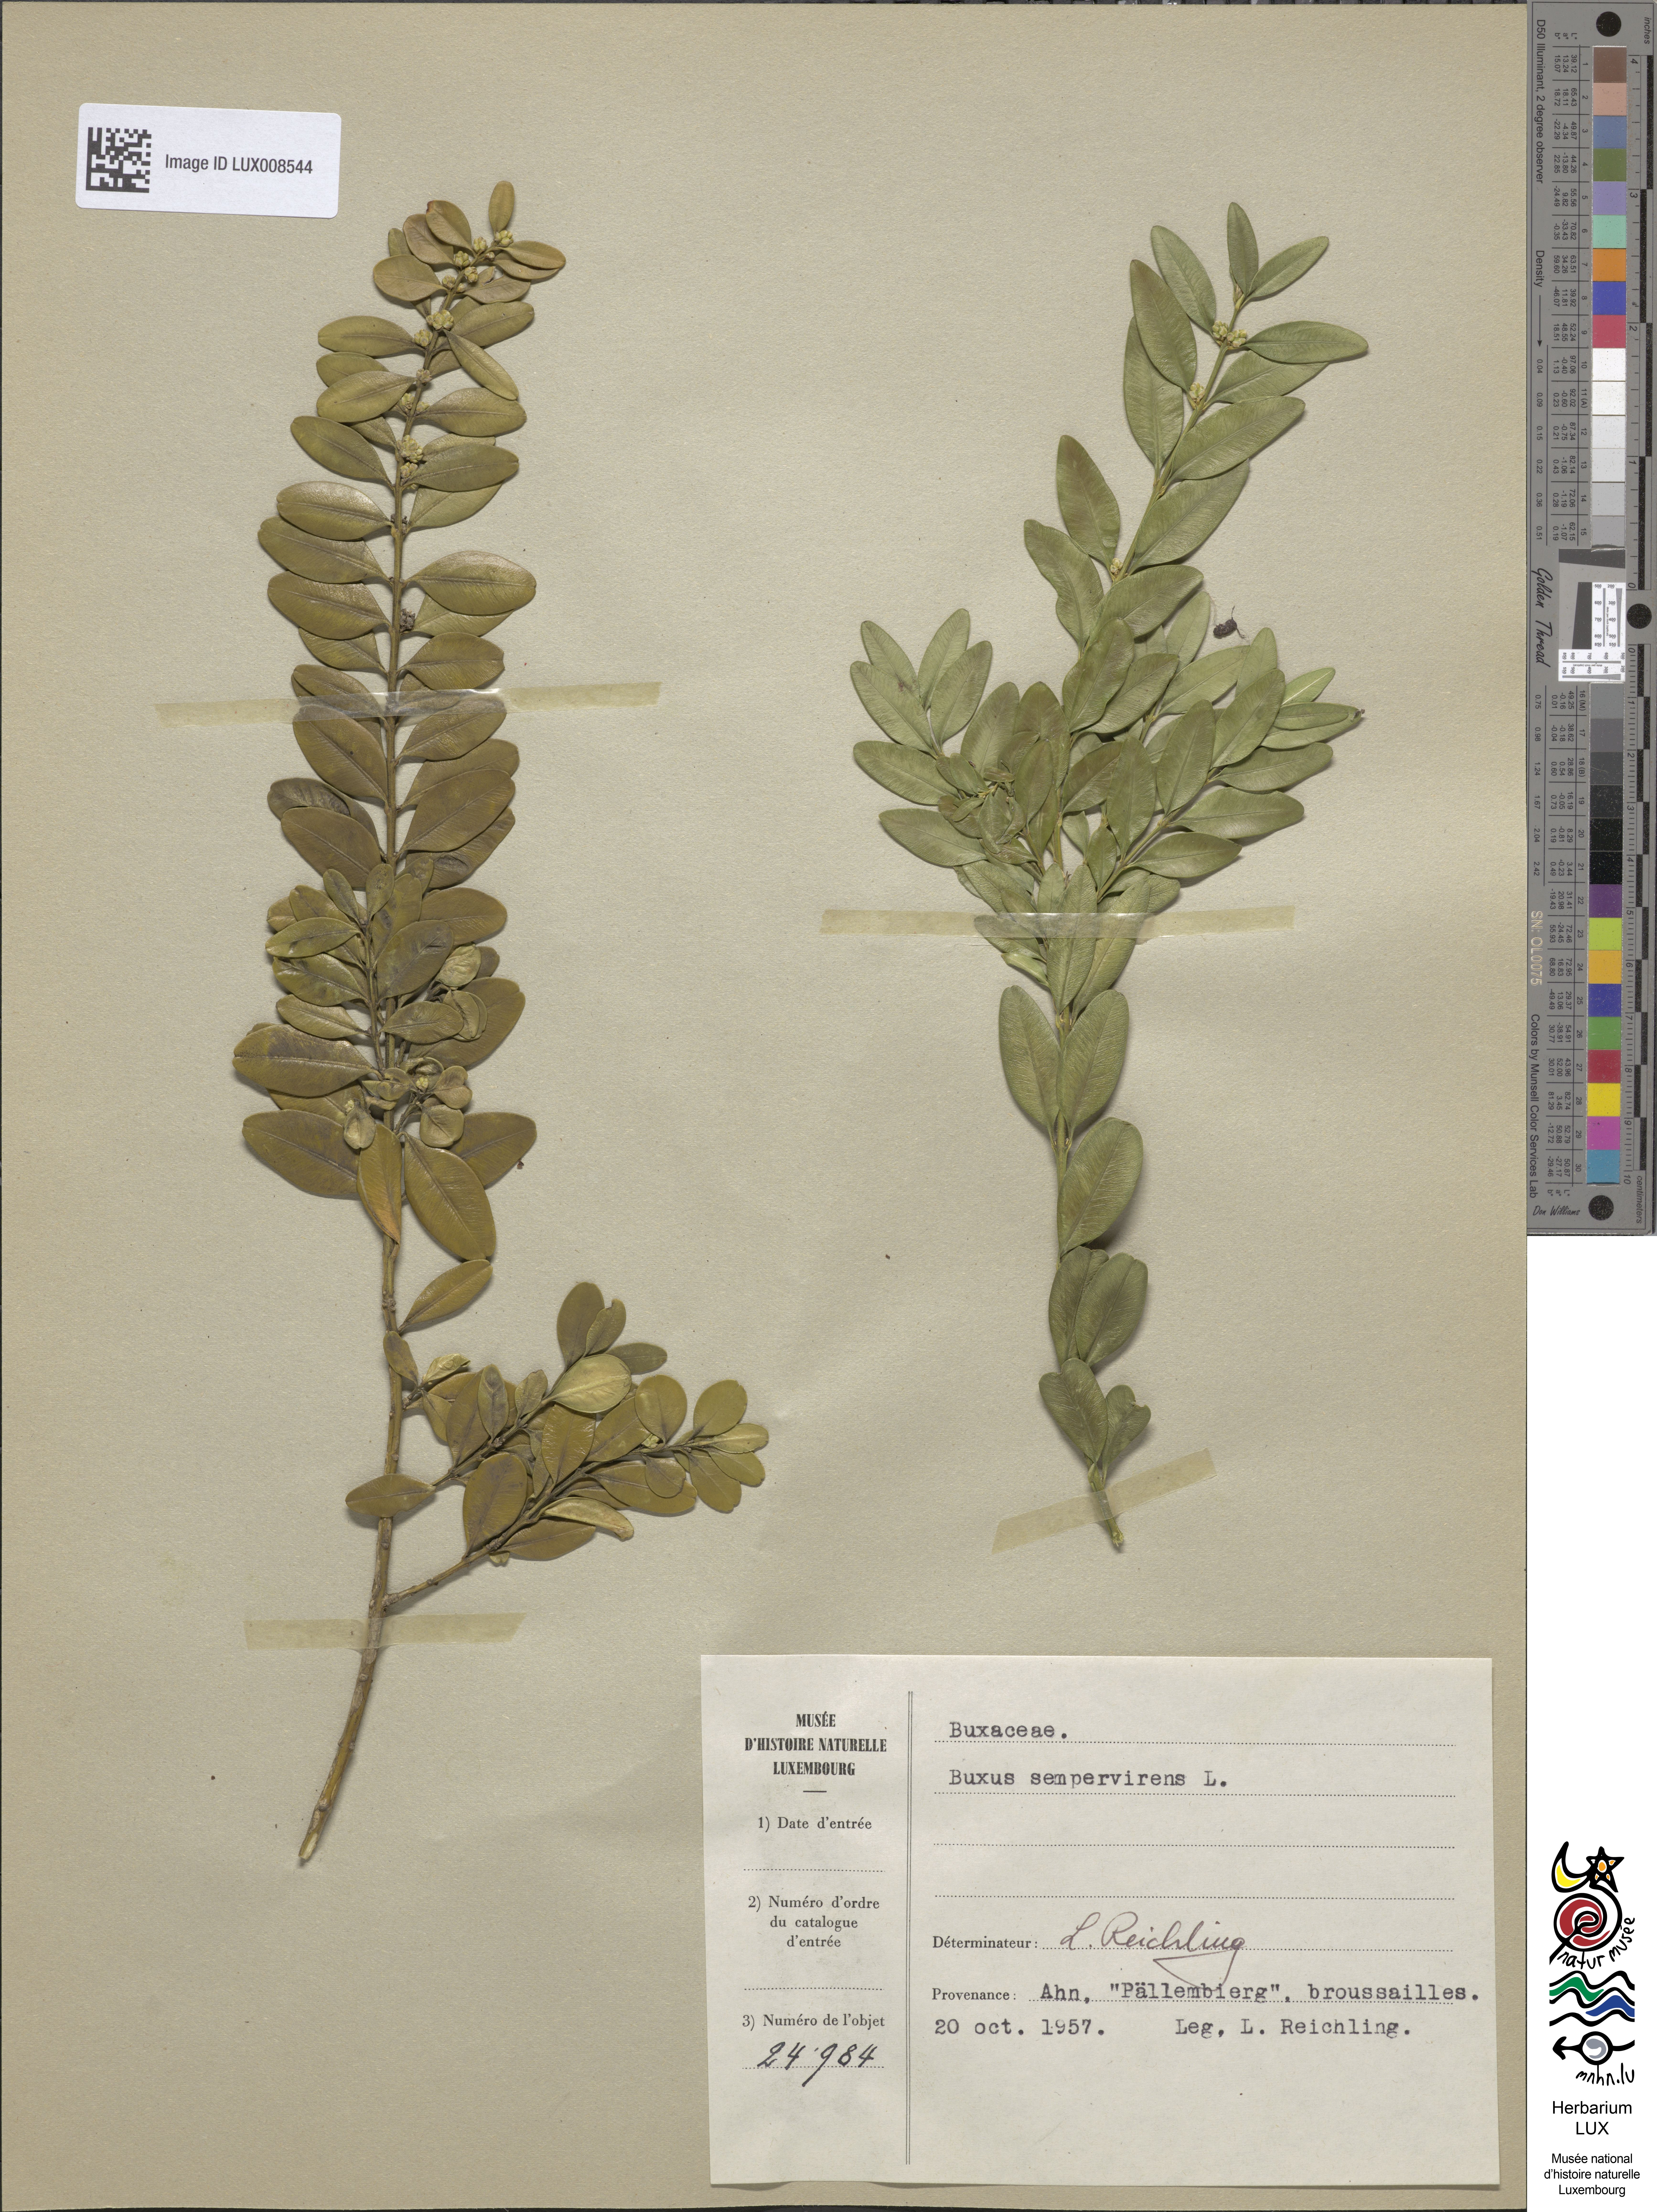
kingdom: Plantae
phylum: Tracheophyta
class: Magnoliopsida
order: Buxales
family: Buxaceae
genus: Buxus
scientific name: Buxus sempervirens
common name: Box
